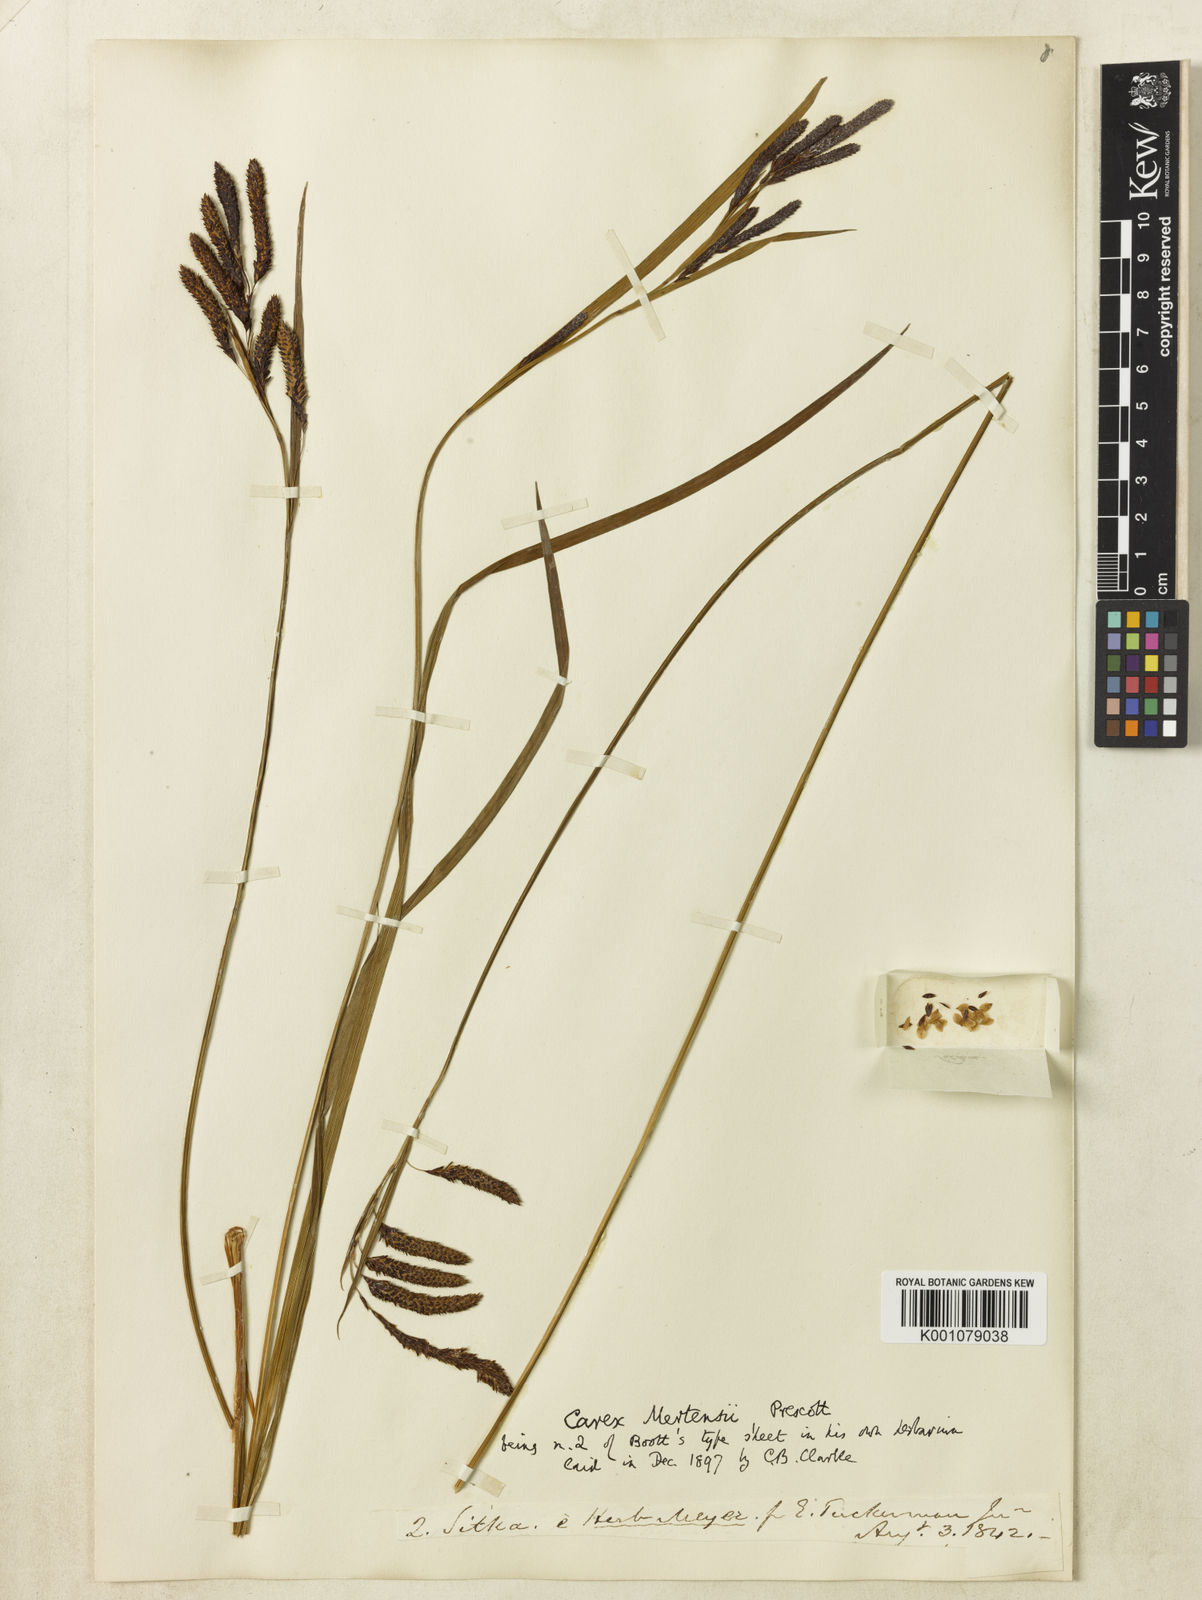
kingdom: Plantae
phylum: Tracheophyta
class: Liliopsida
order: Poales
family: Cyperaceae
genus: Carex
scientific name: Carex mertensii
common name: Mertens' sedge
